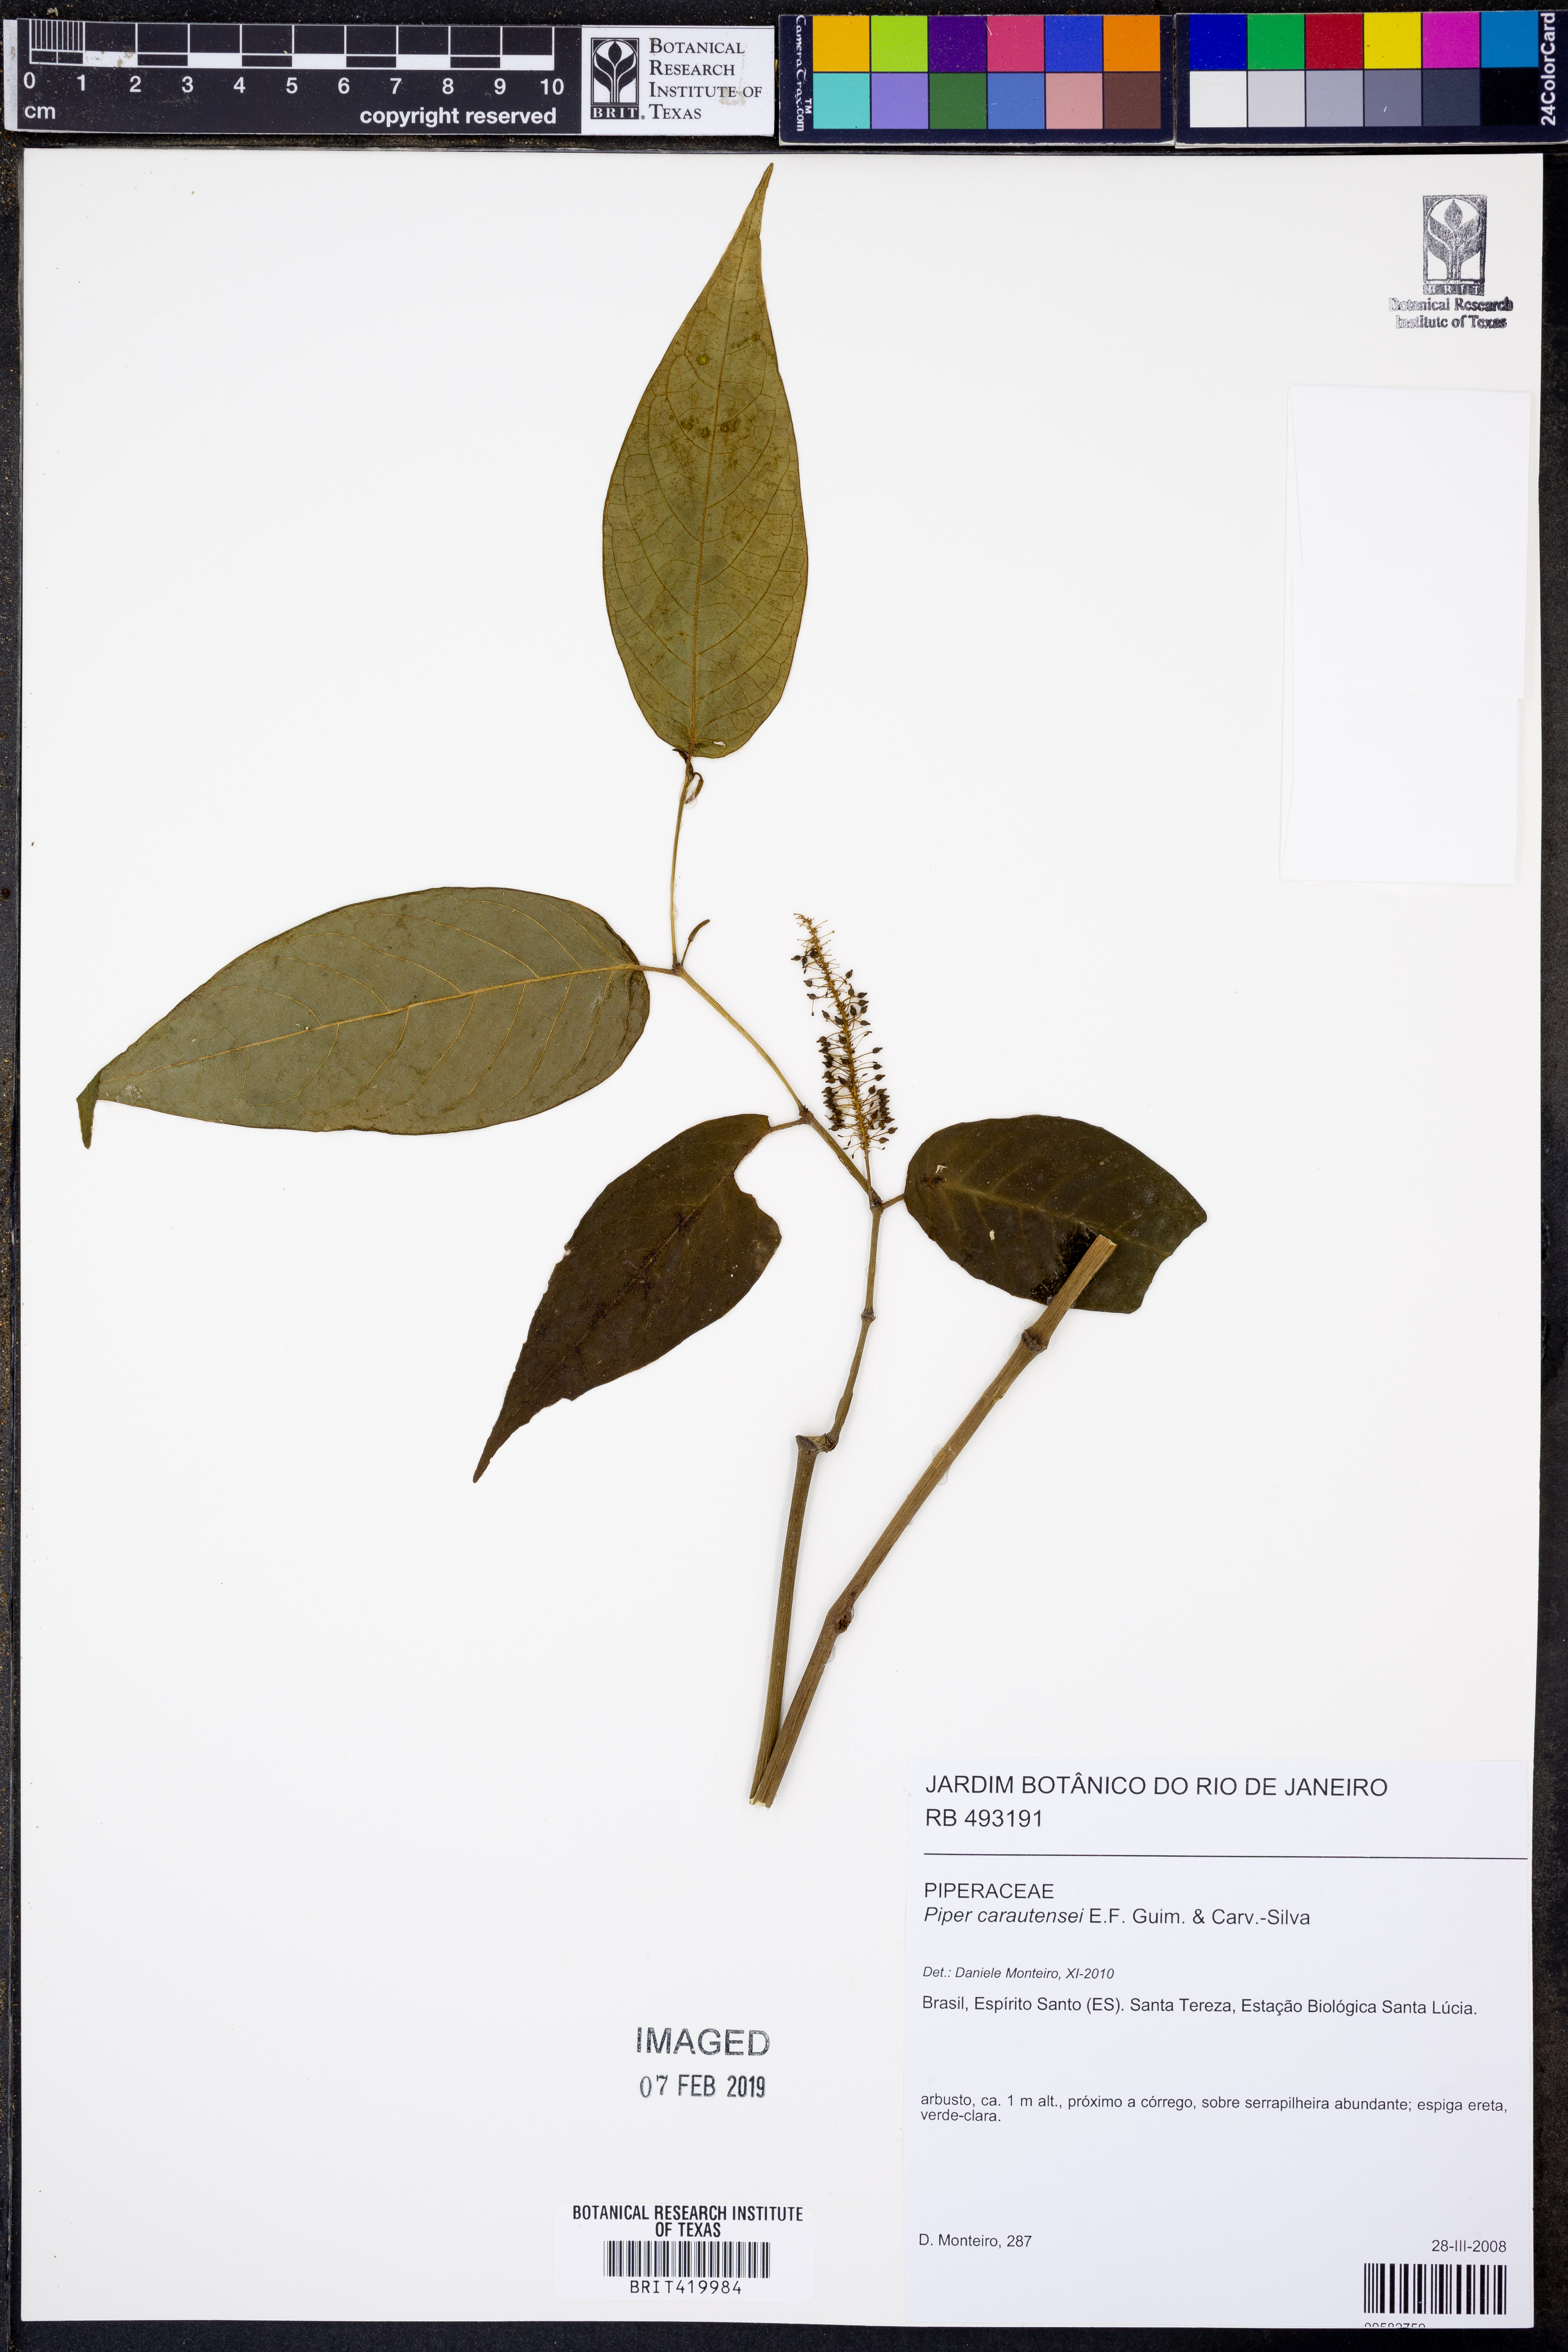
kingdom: Plantae
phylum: Tracheophyta
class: Magnoliopsida
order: Piperales
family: Piperaceae
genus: Piper
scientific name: Piper carautensei
